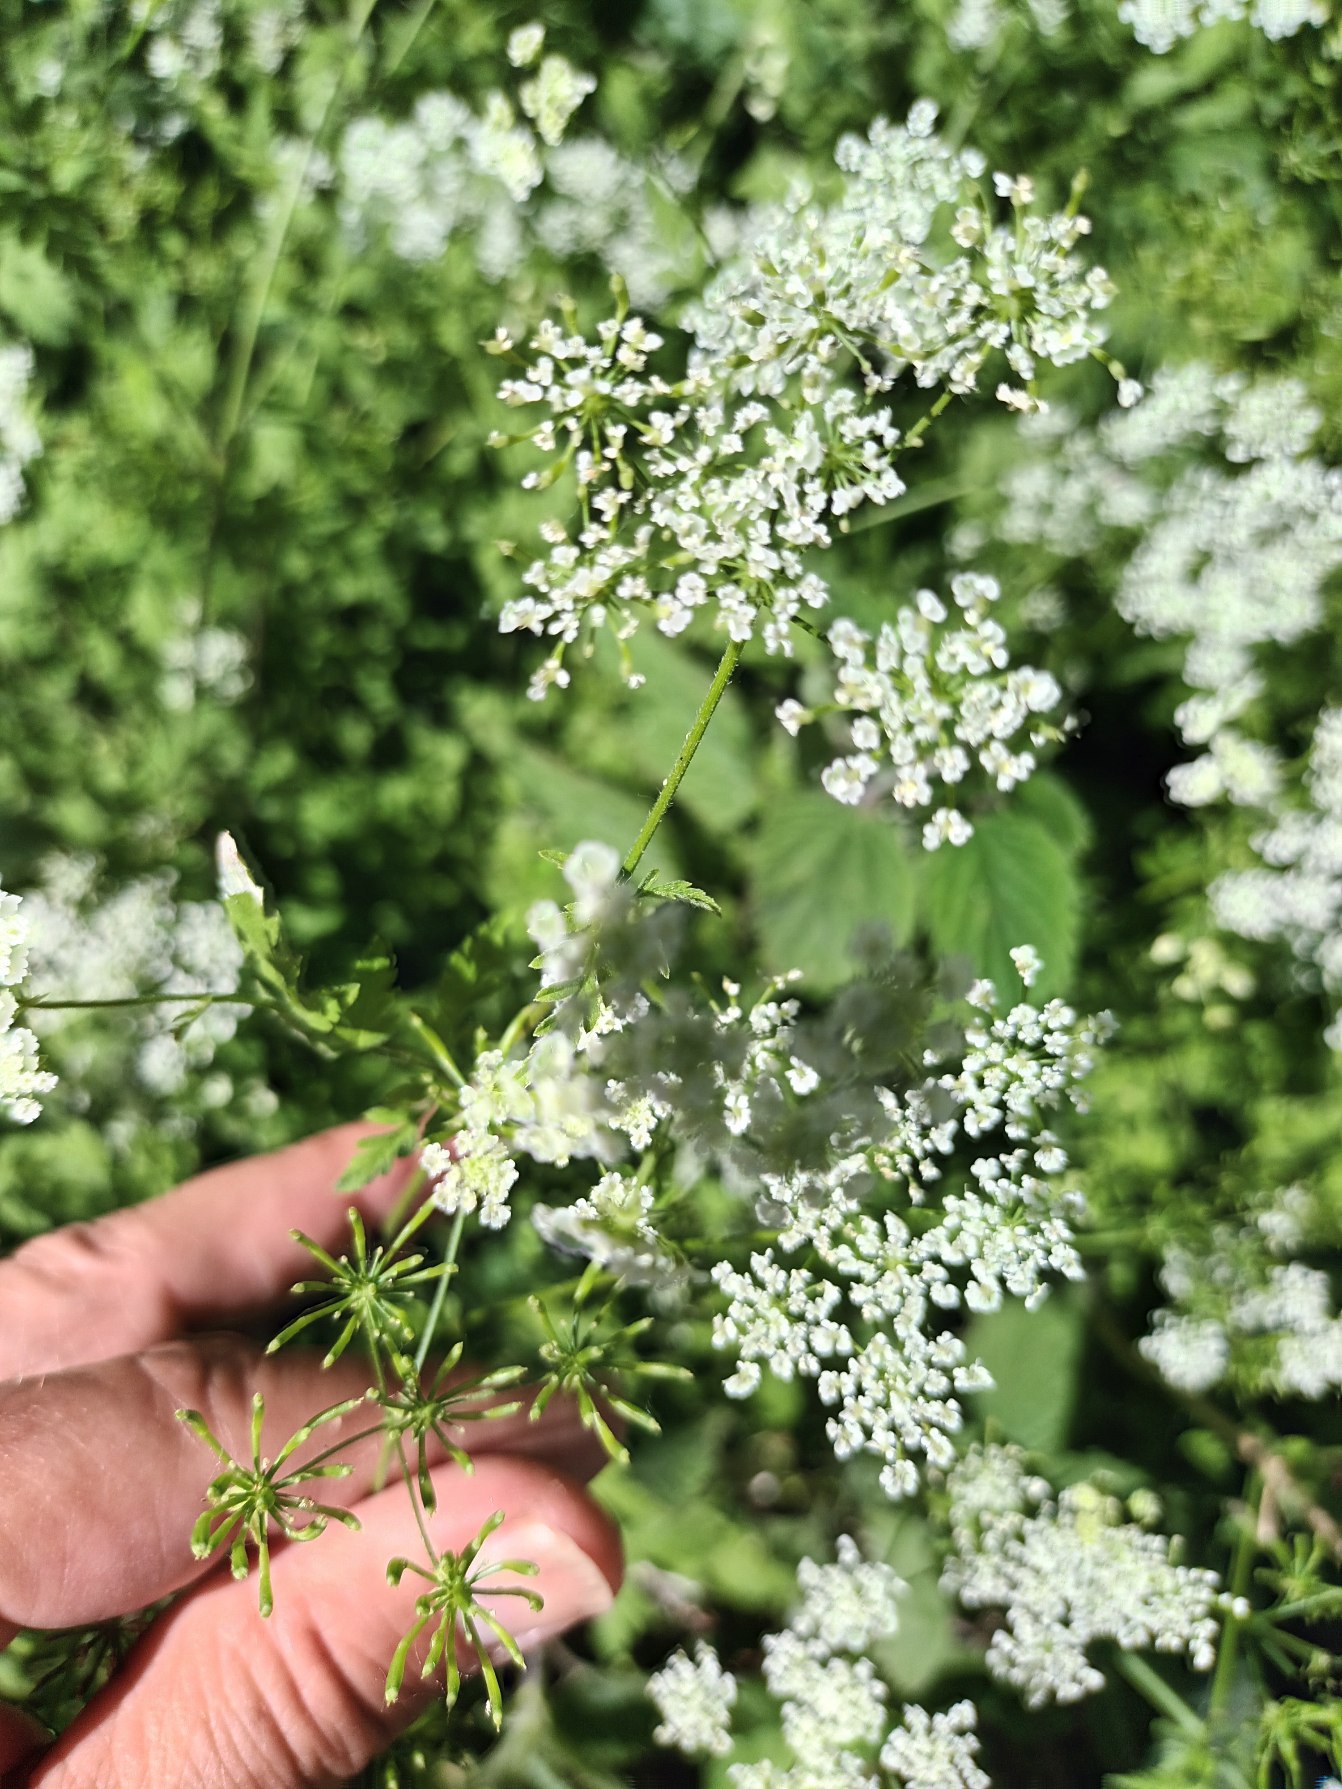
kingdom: Plantae
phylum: Tracheophyta
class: Magnoliopsida
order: Apiales
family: Apiaceae
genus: Chaerophyllum
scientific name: Chaerophyllum temulum
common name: Almindelig hulsvøb
